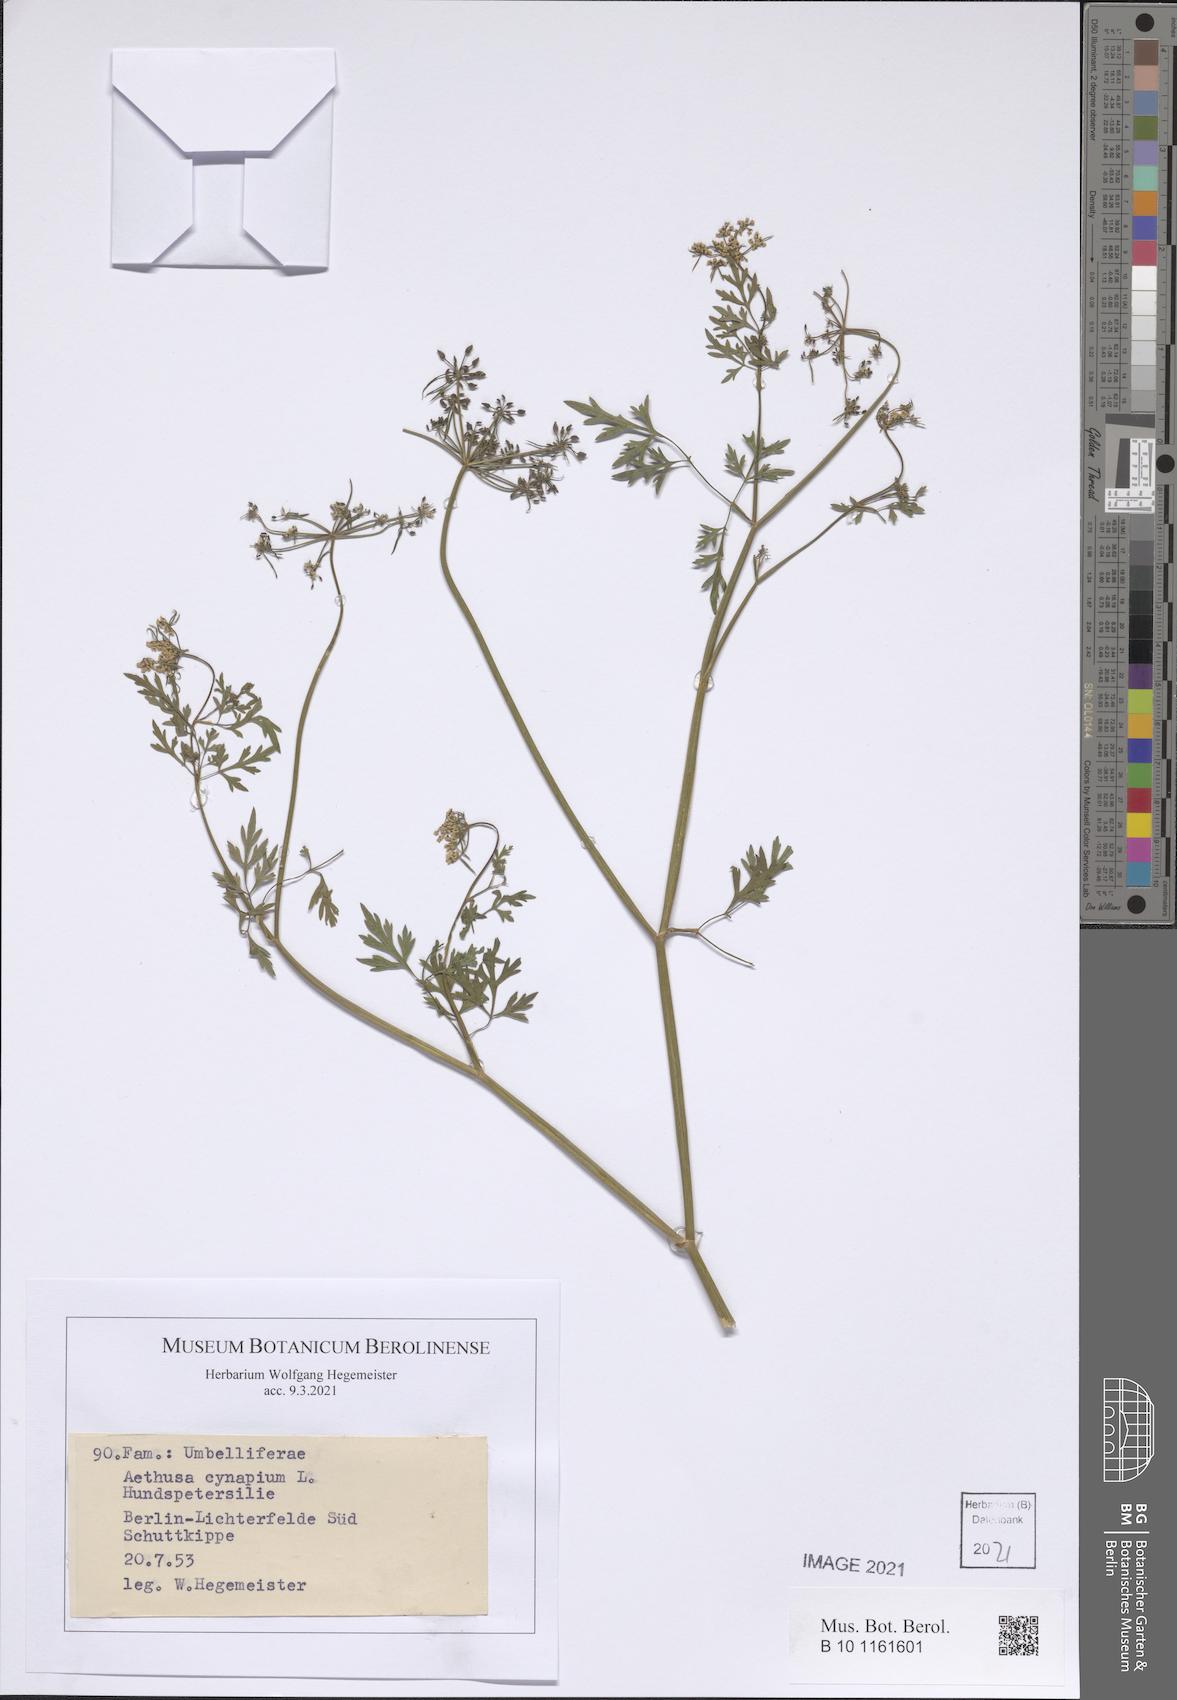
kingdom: Plantae
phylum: Tracheophyta
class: Magnoliopsida
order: Apiales
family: Apiaceae
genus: Aethusa
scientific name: Aethusa cynapium
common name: Fool's parsley
